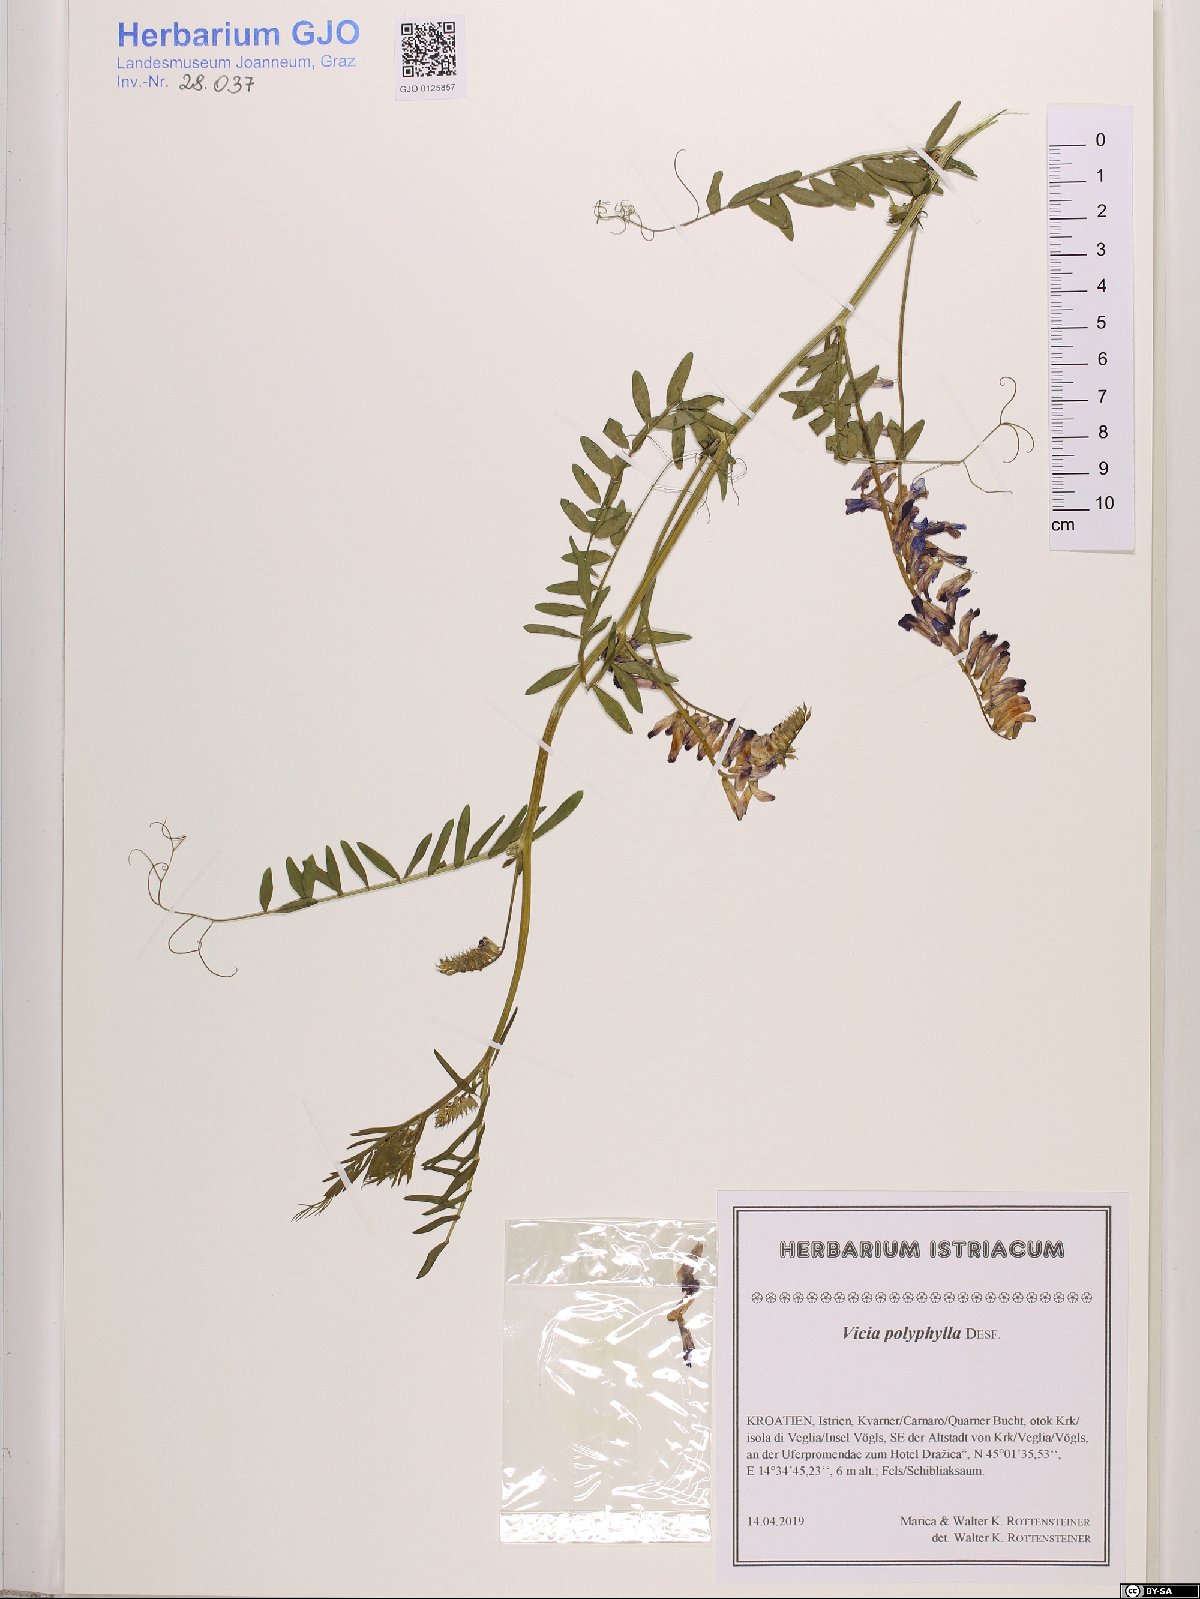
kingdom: Plantae
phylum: Tracheophyta
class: Magnoliopsida
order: Fabales
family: Fabaceae
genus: Vicia
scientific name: Vicia tenuifolia
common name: Fine-leaved vetch
